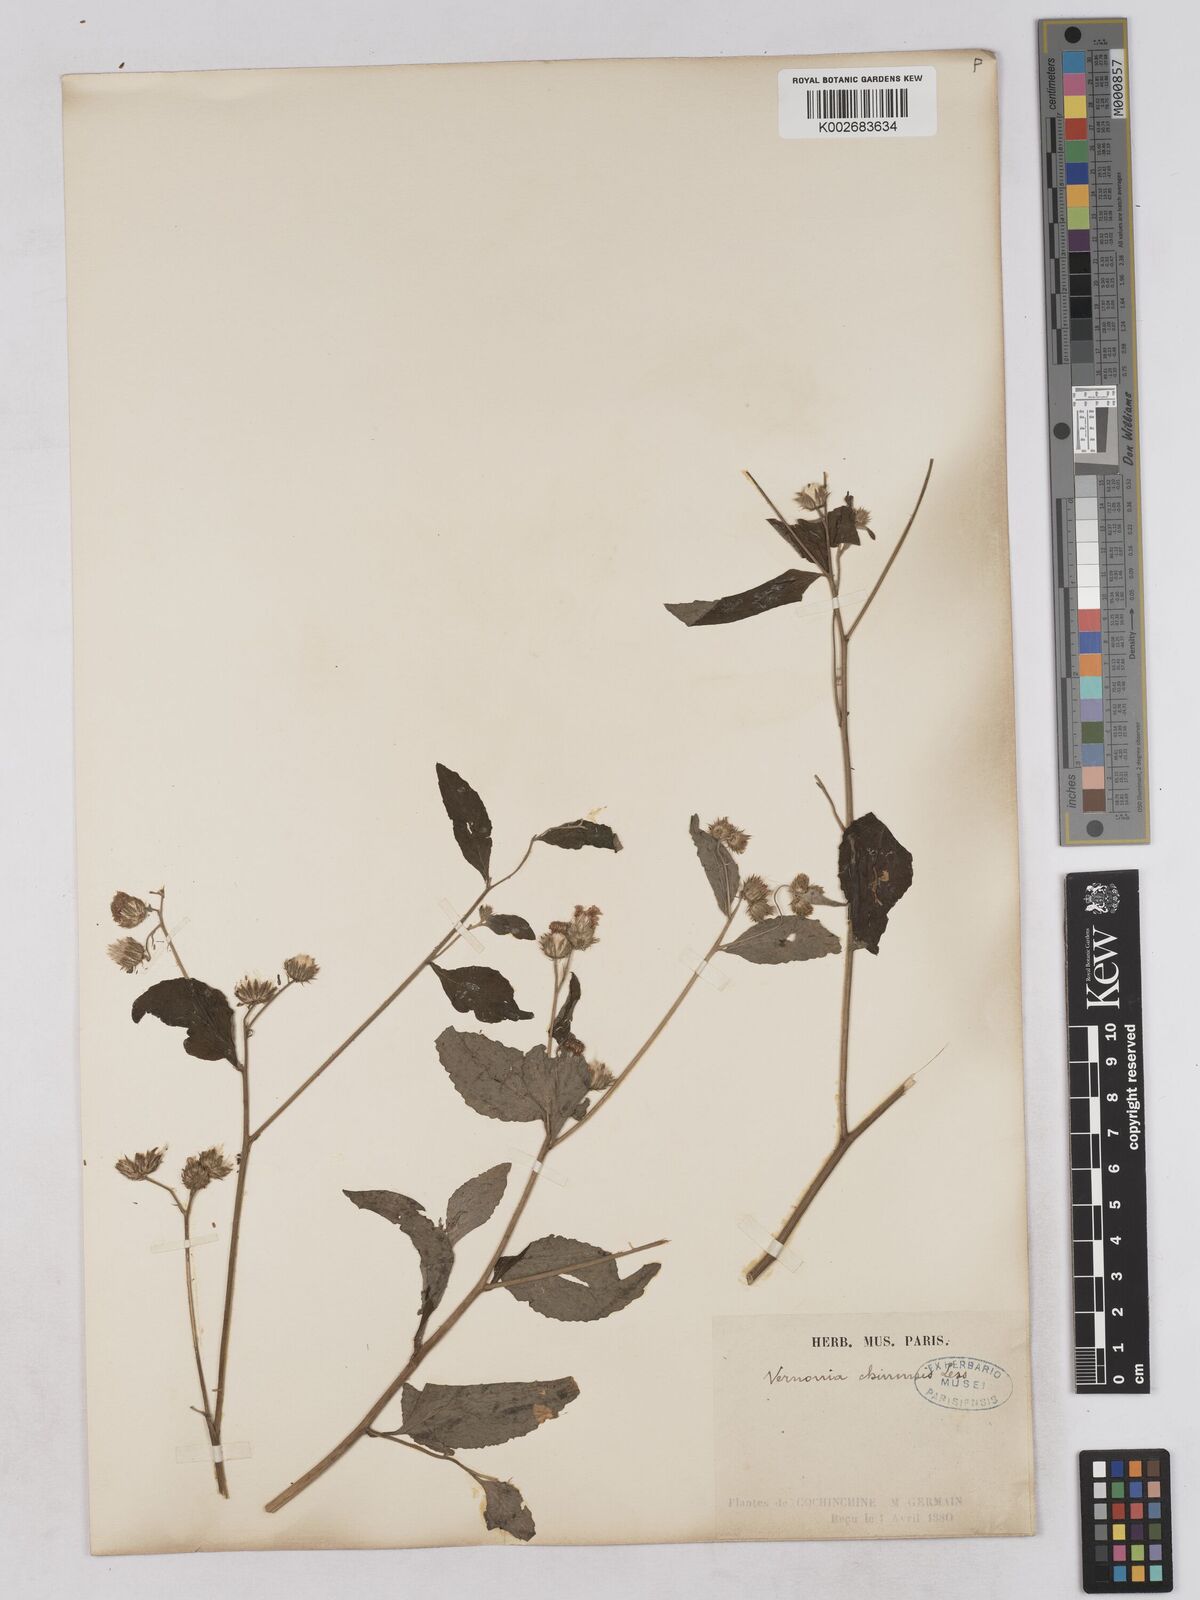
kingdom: Plantae
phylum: Tracheophyta
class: Magnoliopsida
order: Asterales
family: Asteraceae
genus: Cyanthillium
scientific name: Cyanthillium patulum
